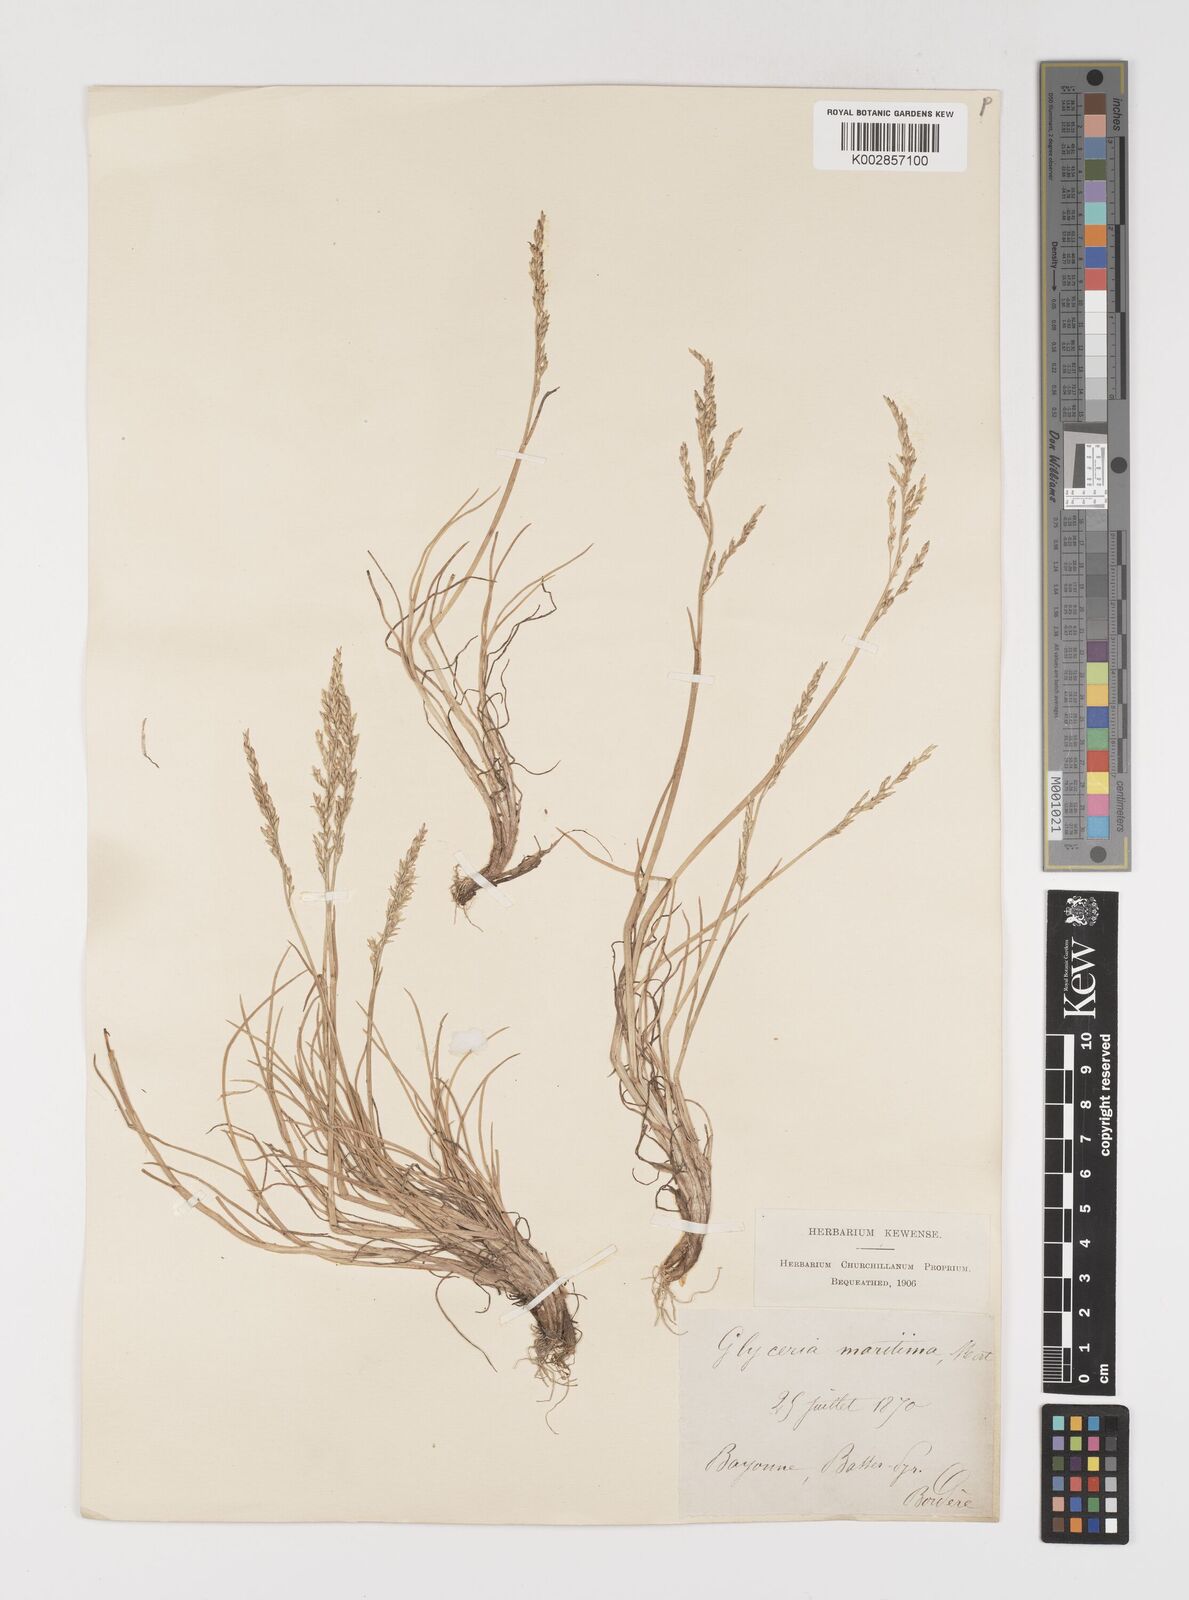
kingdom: Plantae
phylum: Tracheophyta
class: Liliopsida
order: Poales
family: Poaceae
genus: Puccinellia
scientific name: Puccinellia maritima
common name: Common saltmarsh grass
